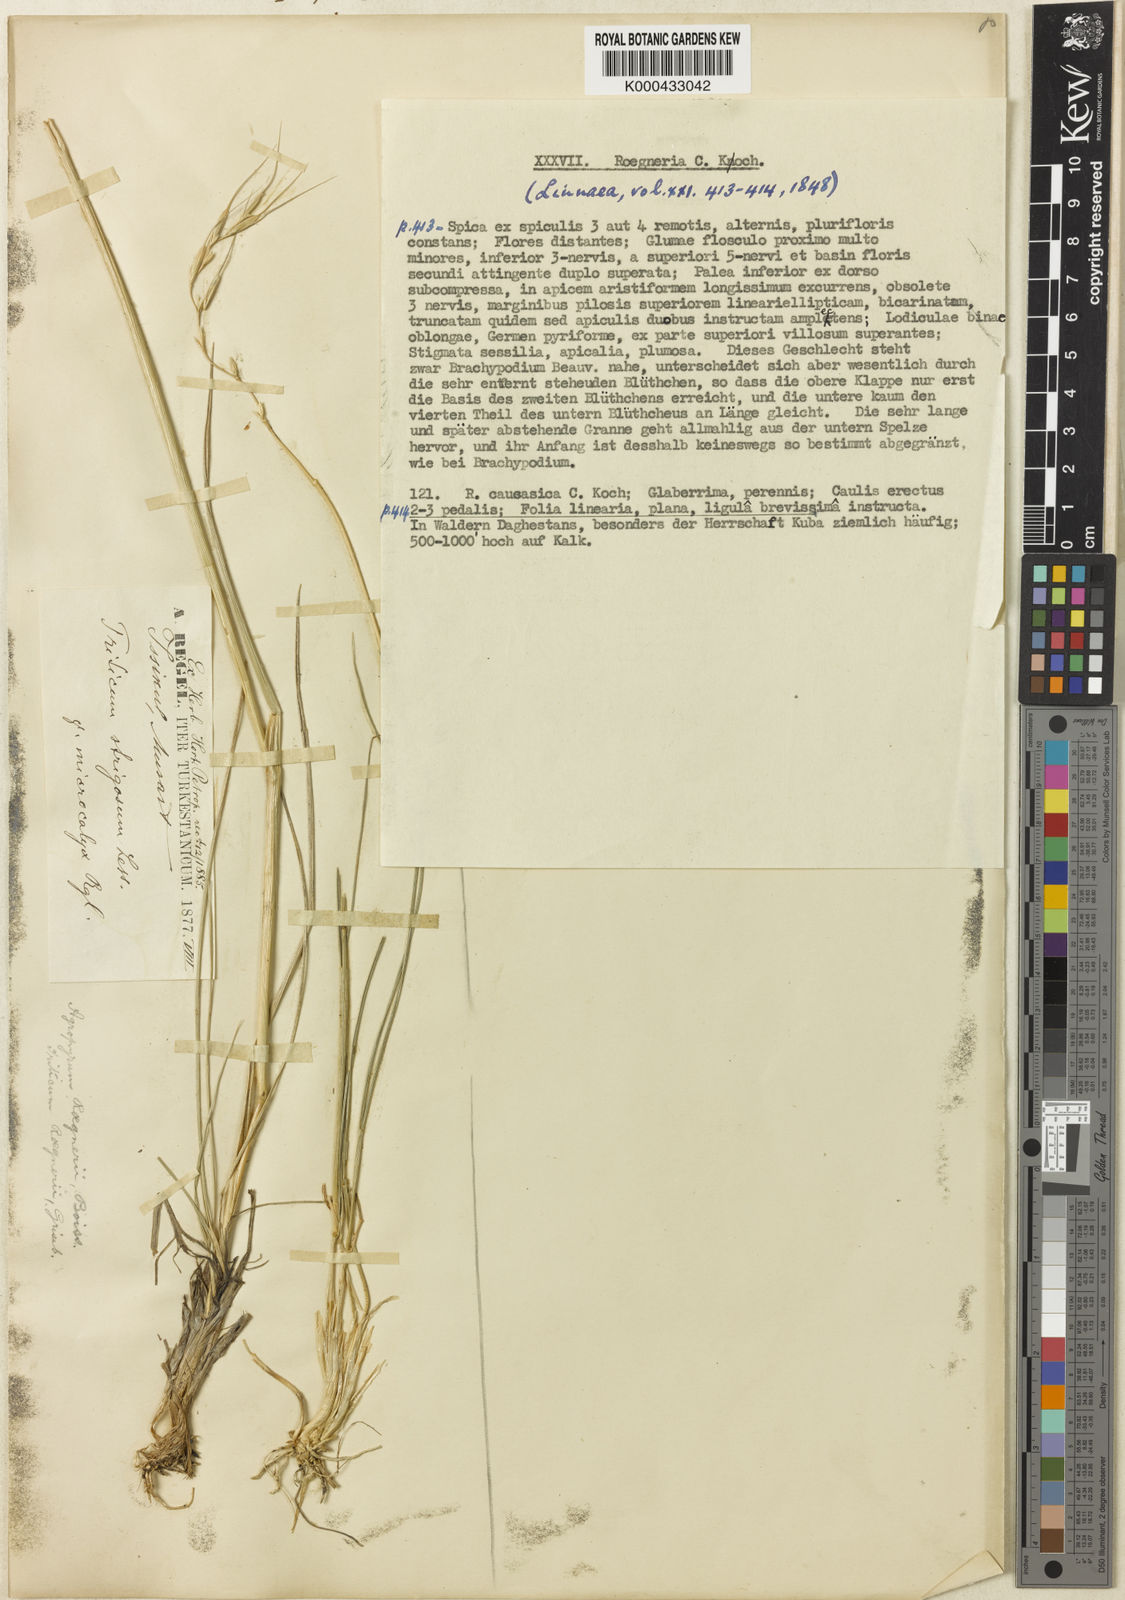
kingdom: Plantae
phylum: Tracheophyta
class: Liliopsida
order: Poales
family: Poaceae
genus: Elymus
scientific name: Elymus
